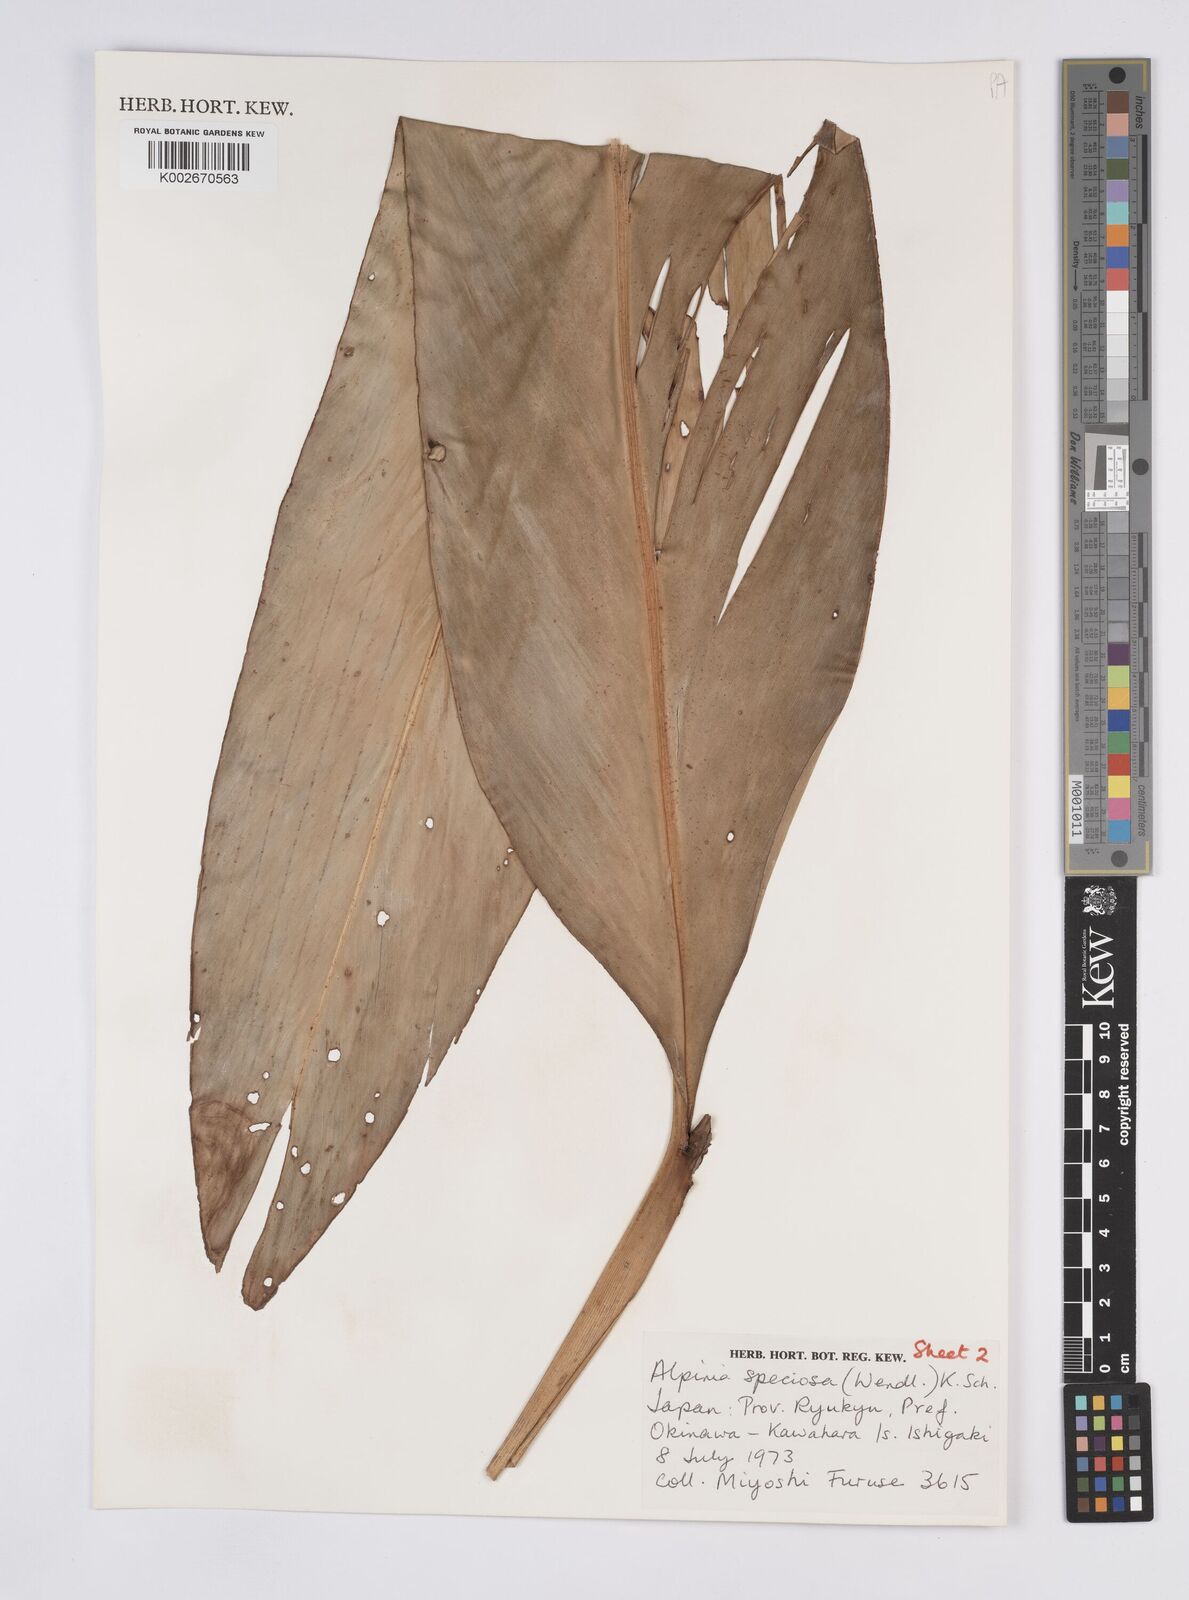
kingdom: Plantae
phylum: Tracheophyta
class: Liliopsida
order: Zingiberales
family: Zingiberaceae
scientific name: Zingiberaceae
